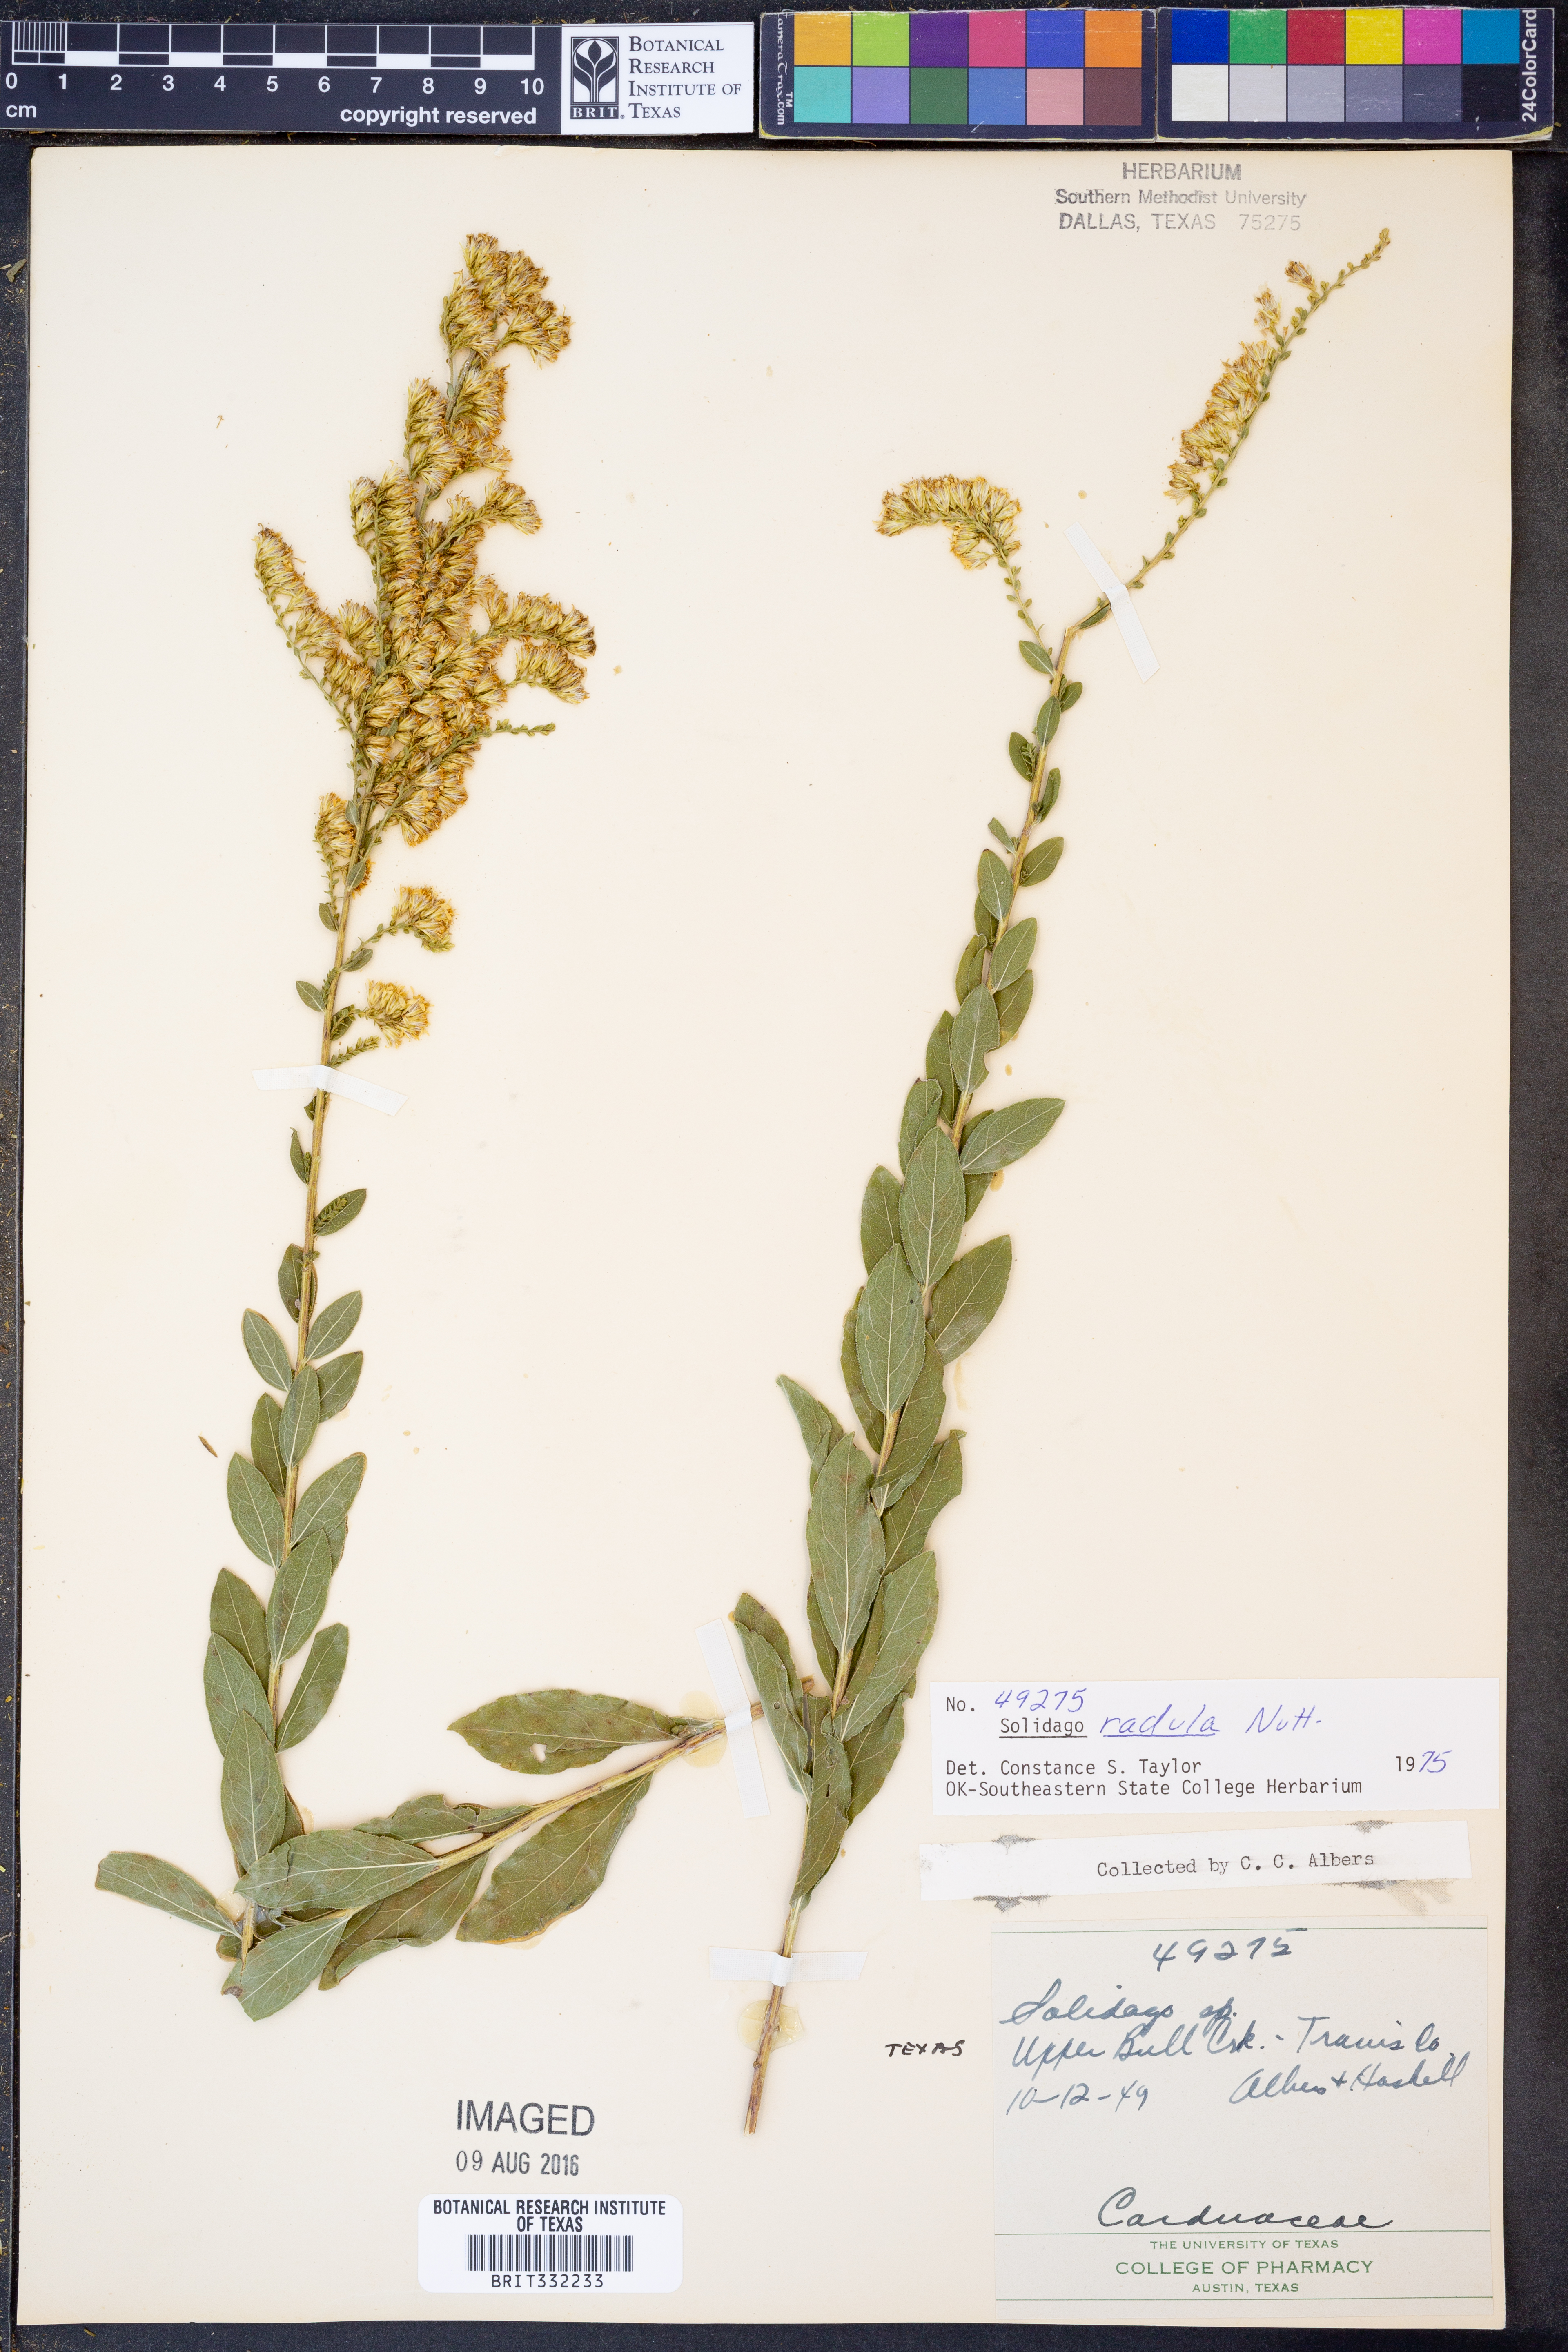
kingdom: Plantae
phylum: Tracheophyta
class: Magnoliopsida
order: Asterales
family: Asteraceae
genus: Solidago
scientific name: Solidago radula
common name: Western rough goldenrod
